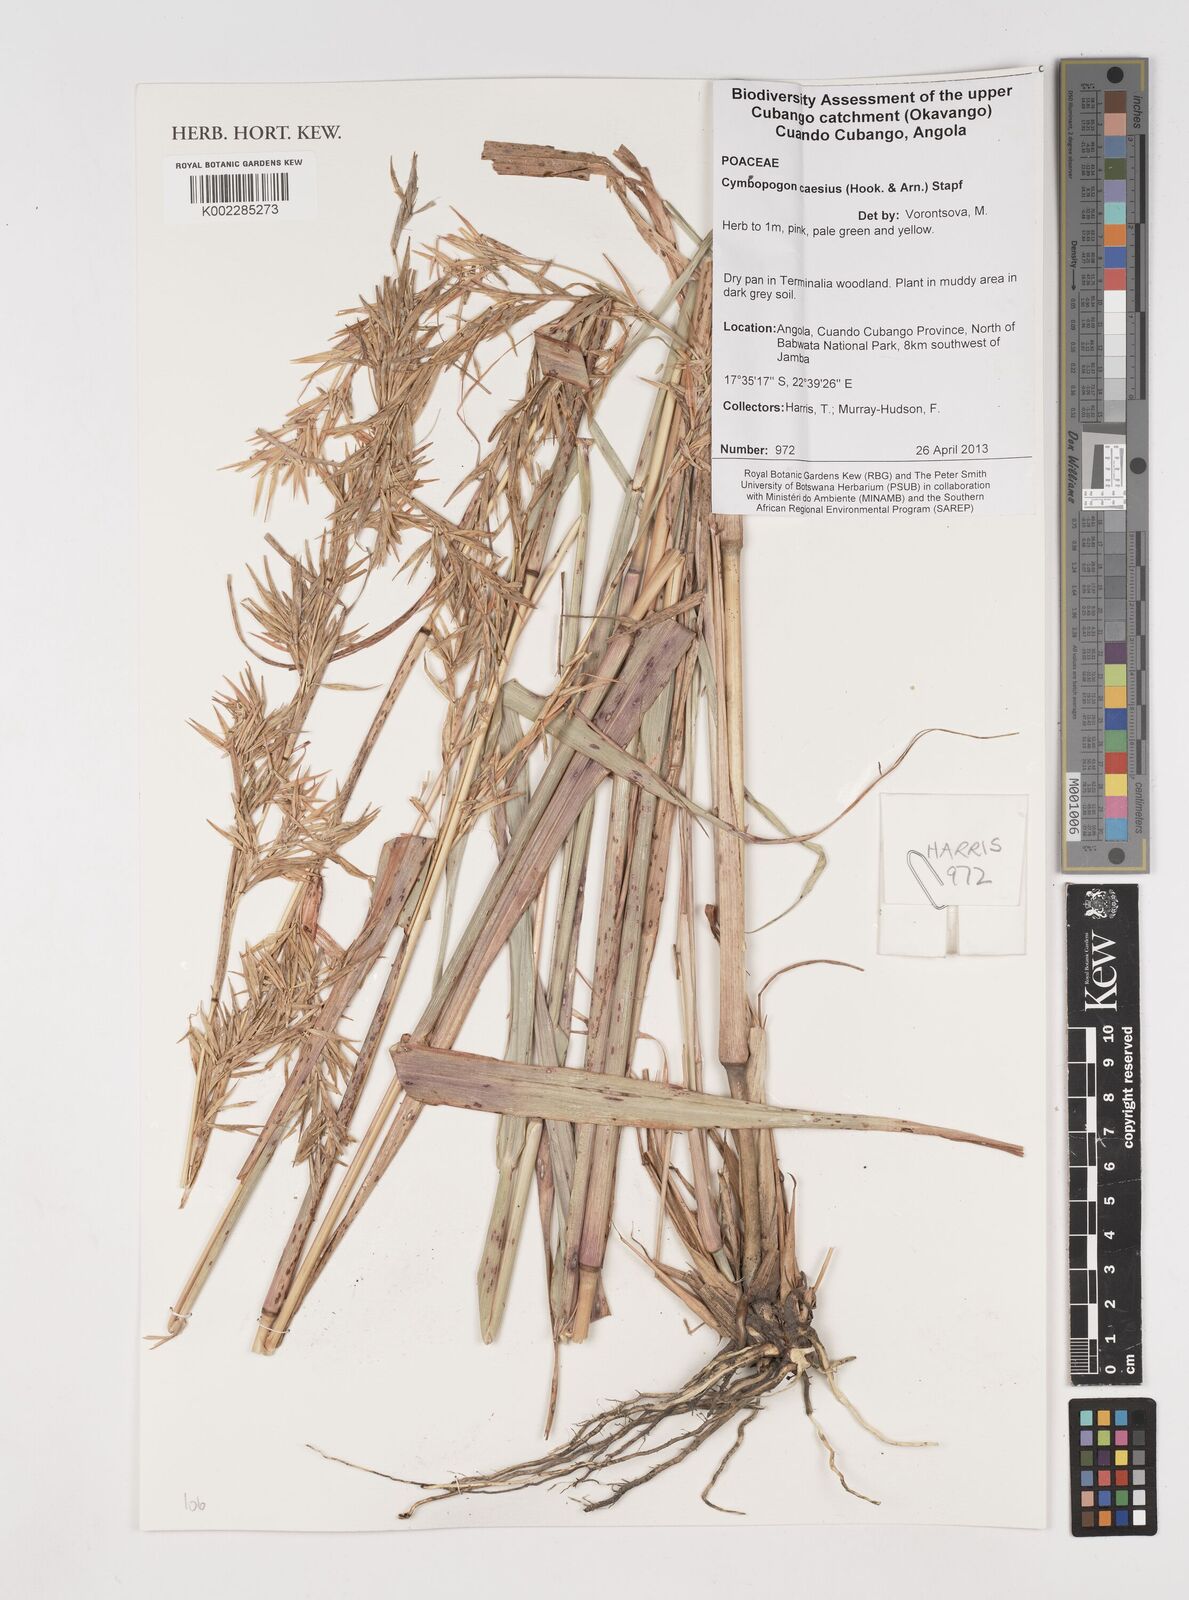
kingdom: Plantae
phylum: Tracheophyta
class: Liliopsida
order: Poales
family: Poaceae
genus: Cymbopogon
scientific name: Cymbopogon caesius
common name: Kachi grass
